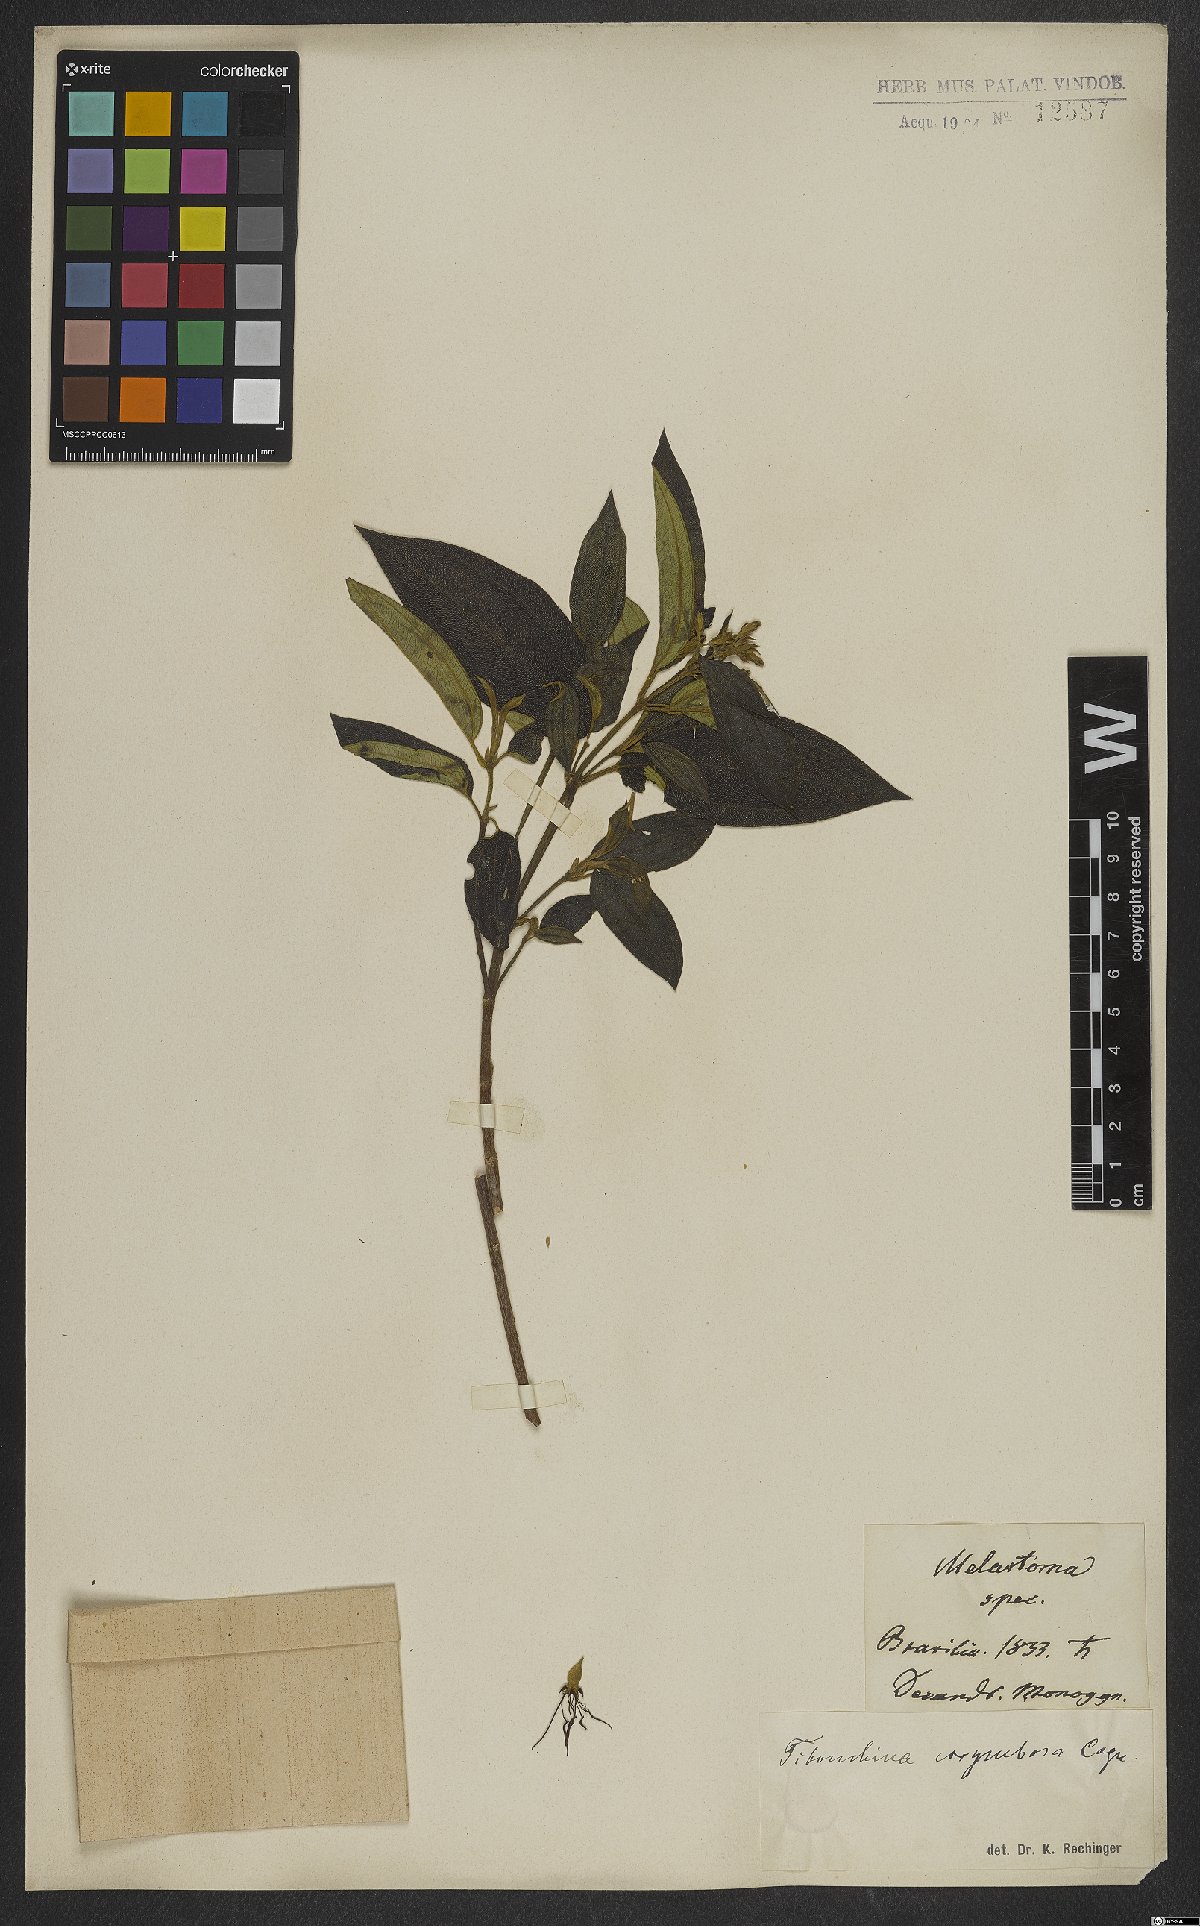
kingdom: Plantae
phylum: Tracheophyta
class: Magnoliopsida
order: Myrtales
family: Melastomataceae
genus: Pleroma
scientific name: Pleroma vimineum
